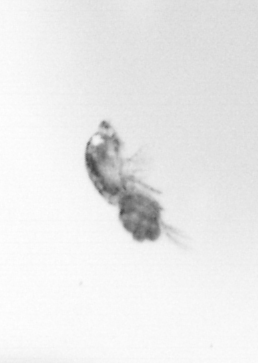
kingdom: Animalia
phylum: Arthropoda
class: Copepoda
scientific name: Copepoda
